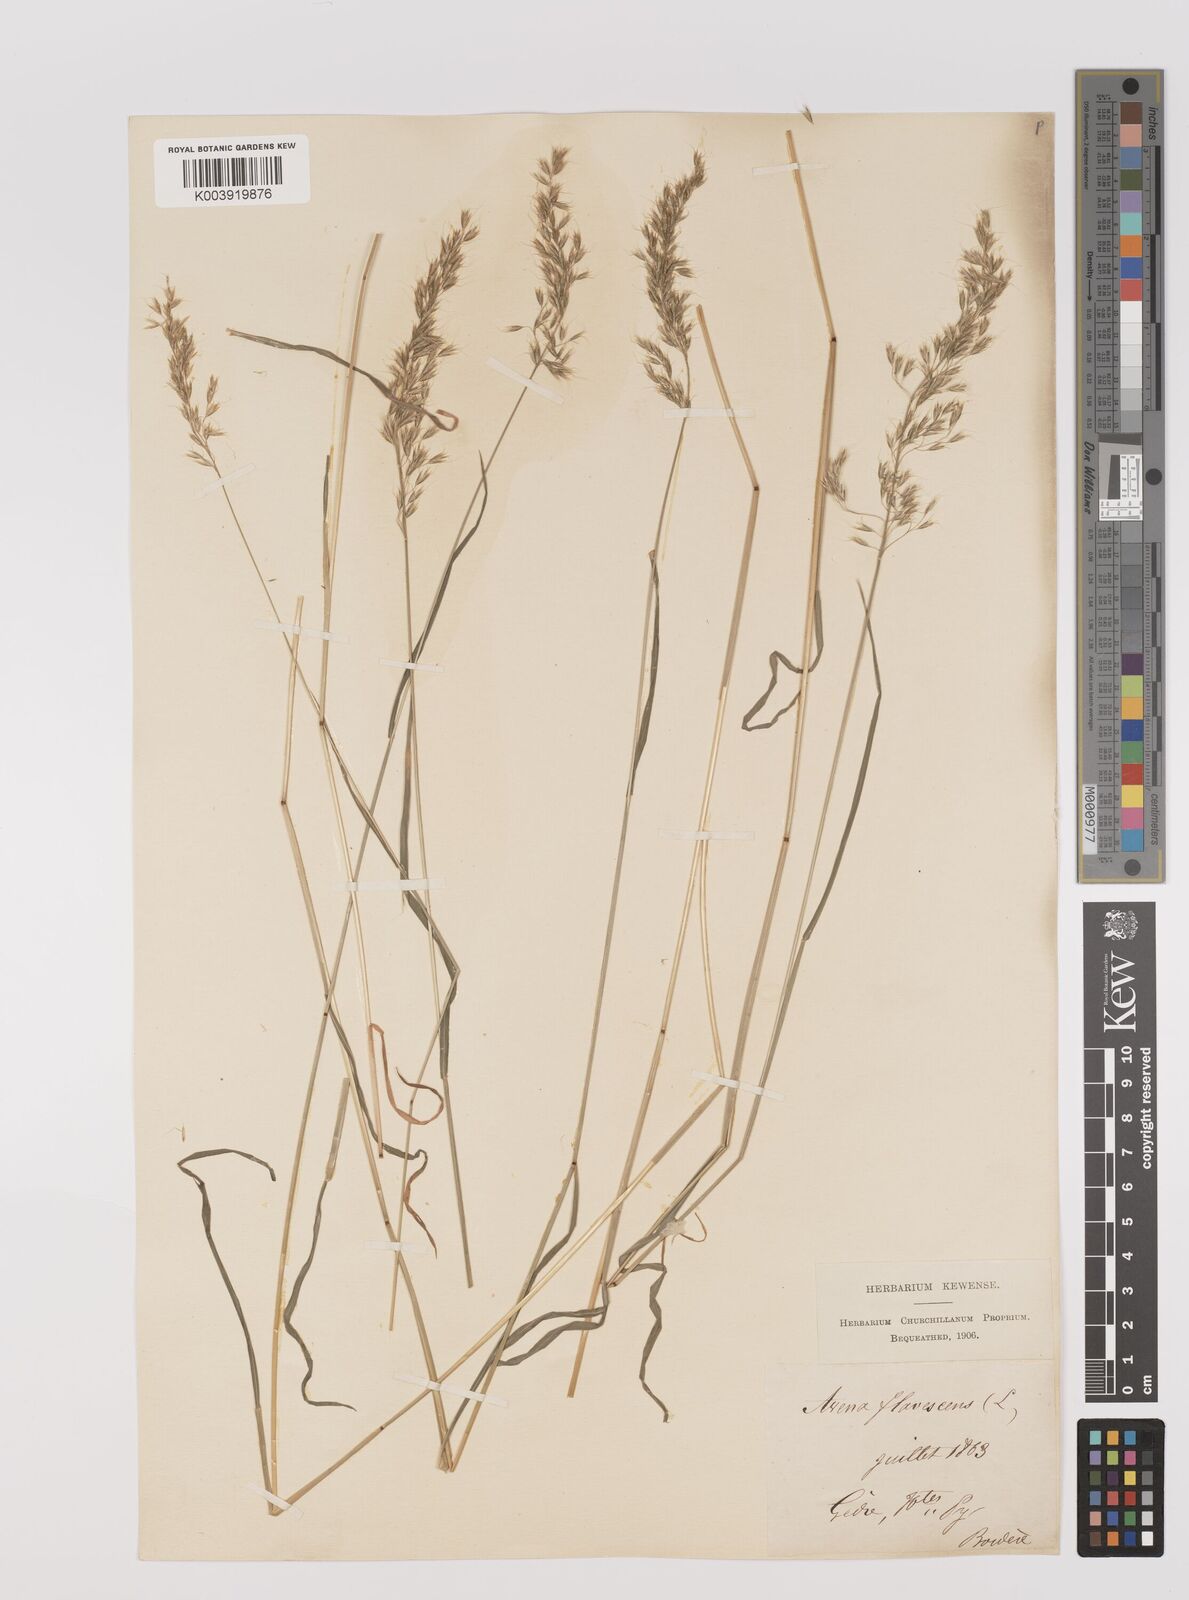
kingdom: Plantae
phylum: Tracheophyta
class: Liliopsida
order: Poales
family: Poaceae
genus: Trisetum
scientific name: Trisetum flavescens
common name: Yellow oat-grass
